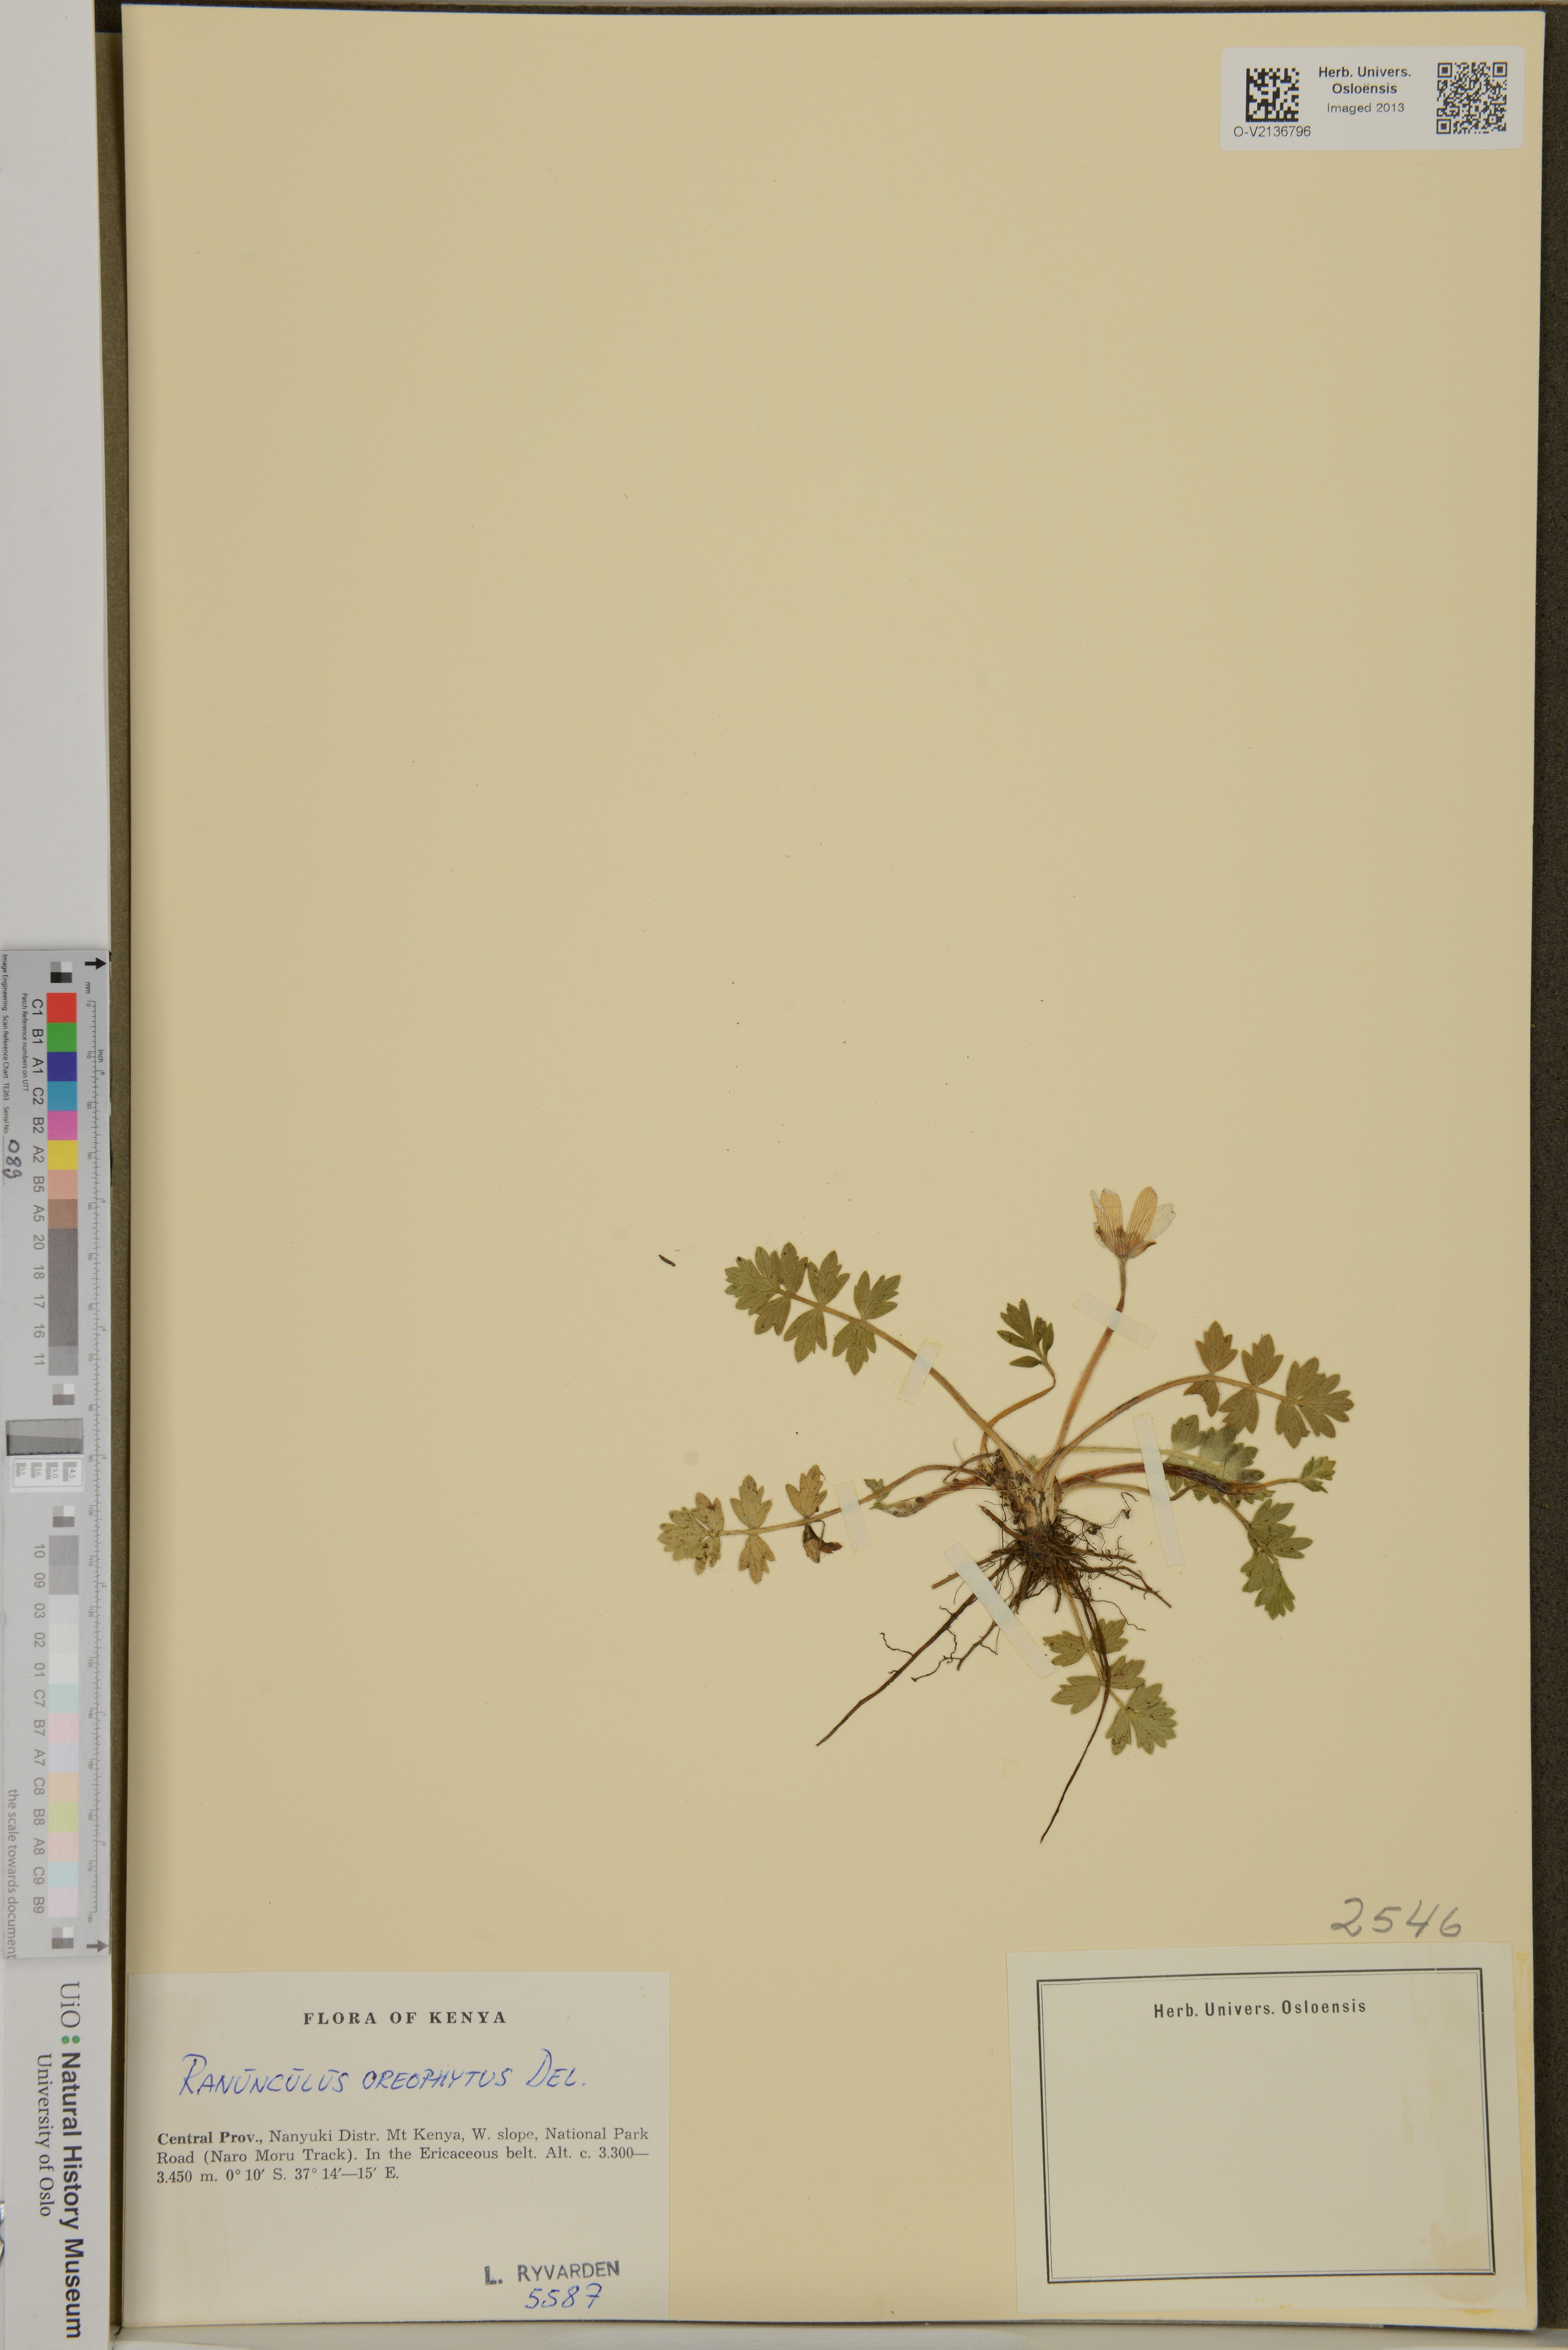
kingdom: Plantae
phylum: Tracheophyta
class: Magnoliopsida
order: Ranunculales
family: Ranunculaceae
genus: Ranunculus
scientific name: Ranunculus oreophytus
